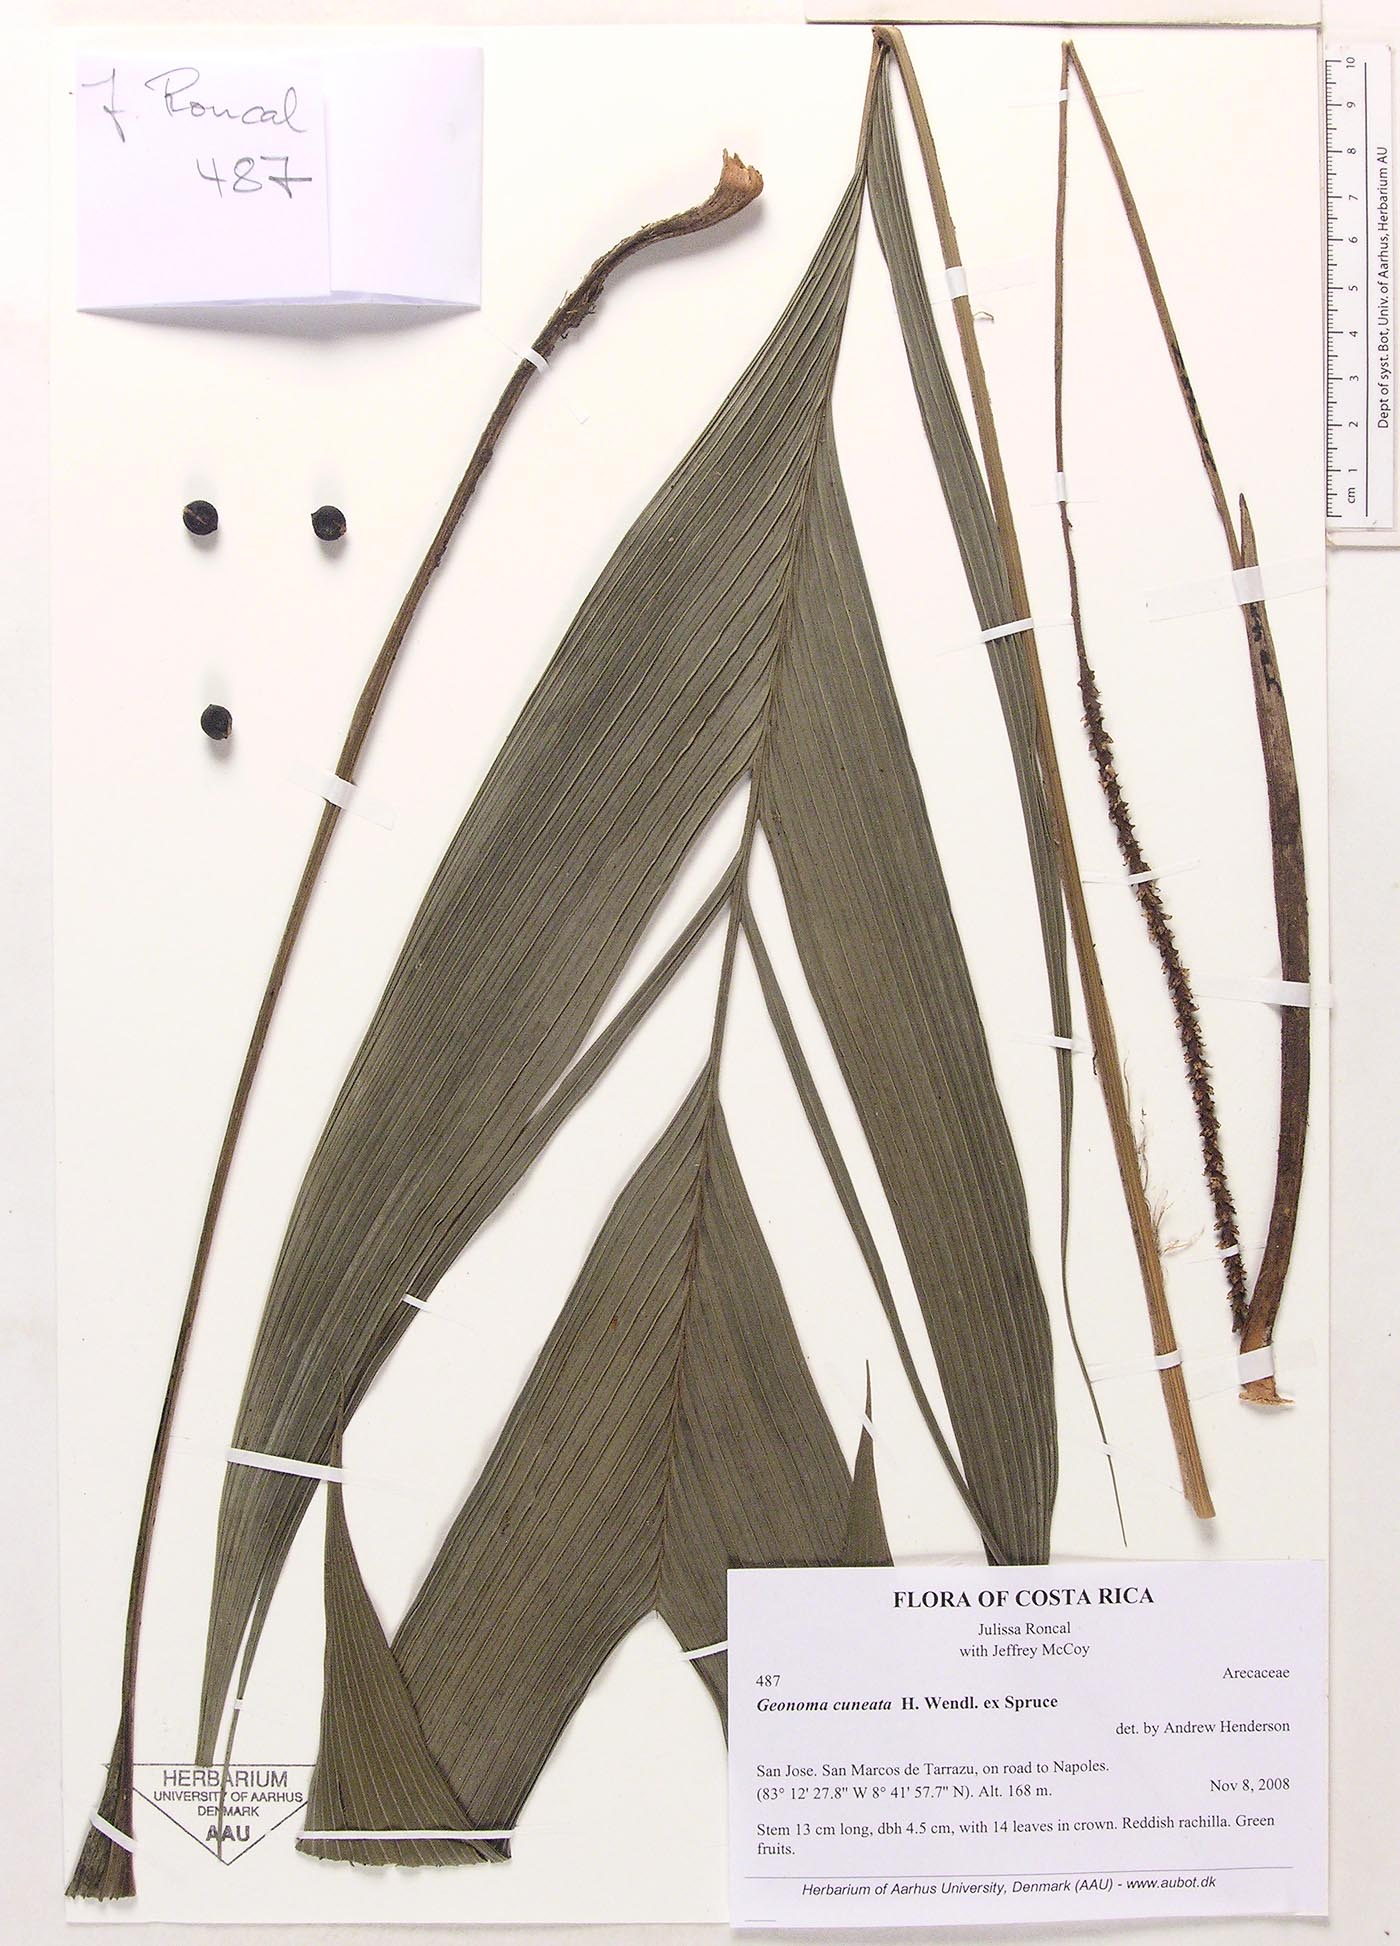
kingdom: Plantae
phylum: Tracheophyta
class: Liliopsida
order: Arecales
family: Arecaceae
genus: Geonoma
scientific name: Geonoma cuneata
